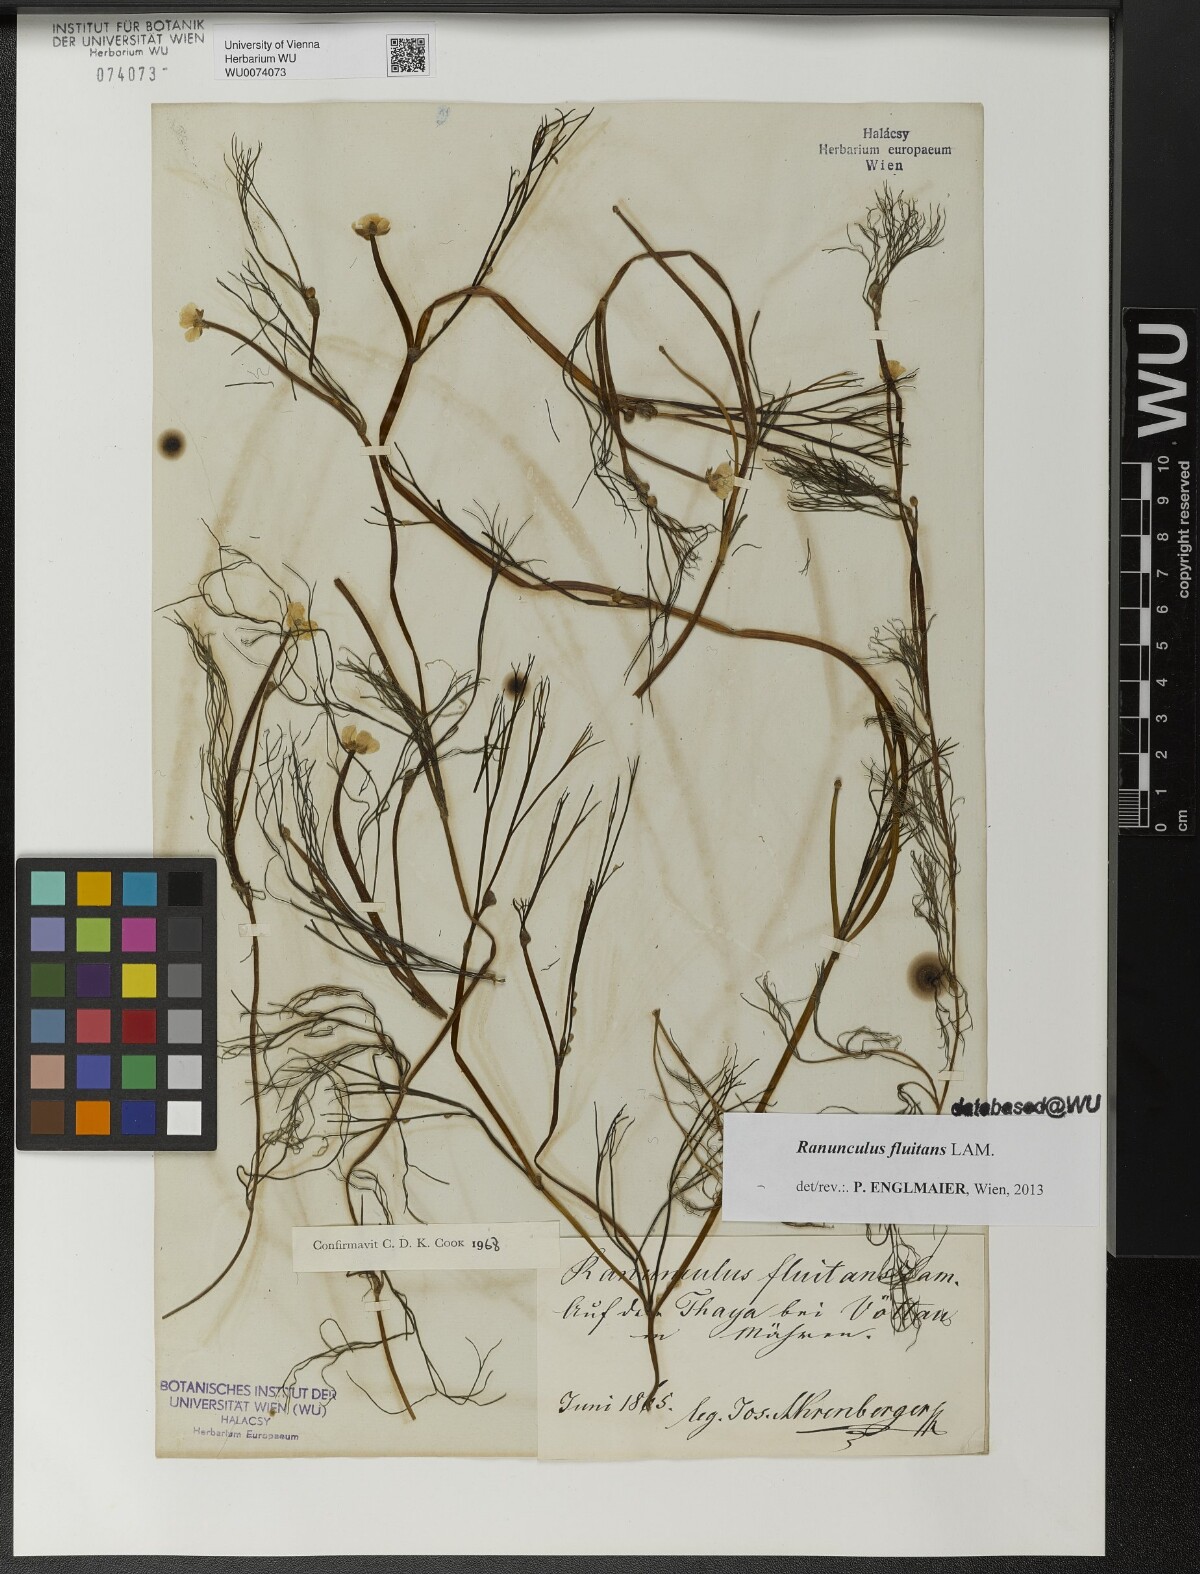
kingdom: Plantae
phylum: Tracheophyta
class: Magnoliopsida
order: Ranunculales
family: Ranunculaceae
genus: Ranunculus
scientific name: Ranunculus fluitans
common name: River water-crowfoot
